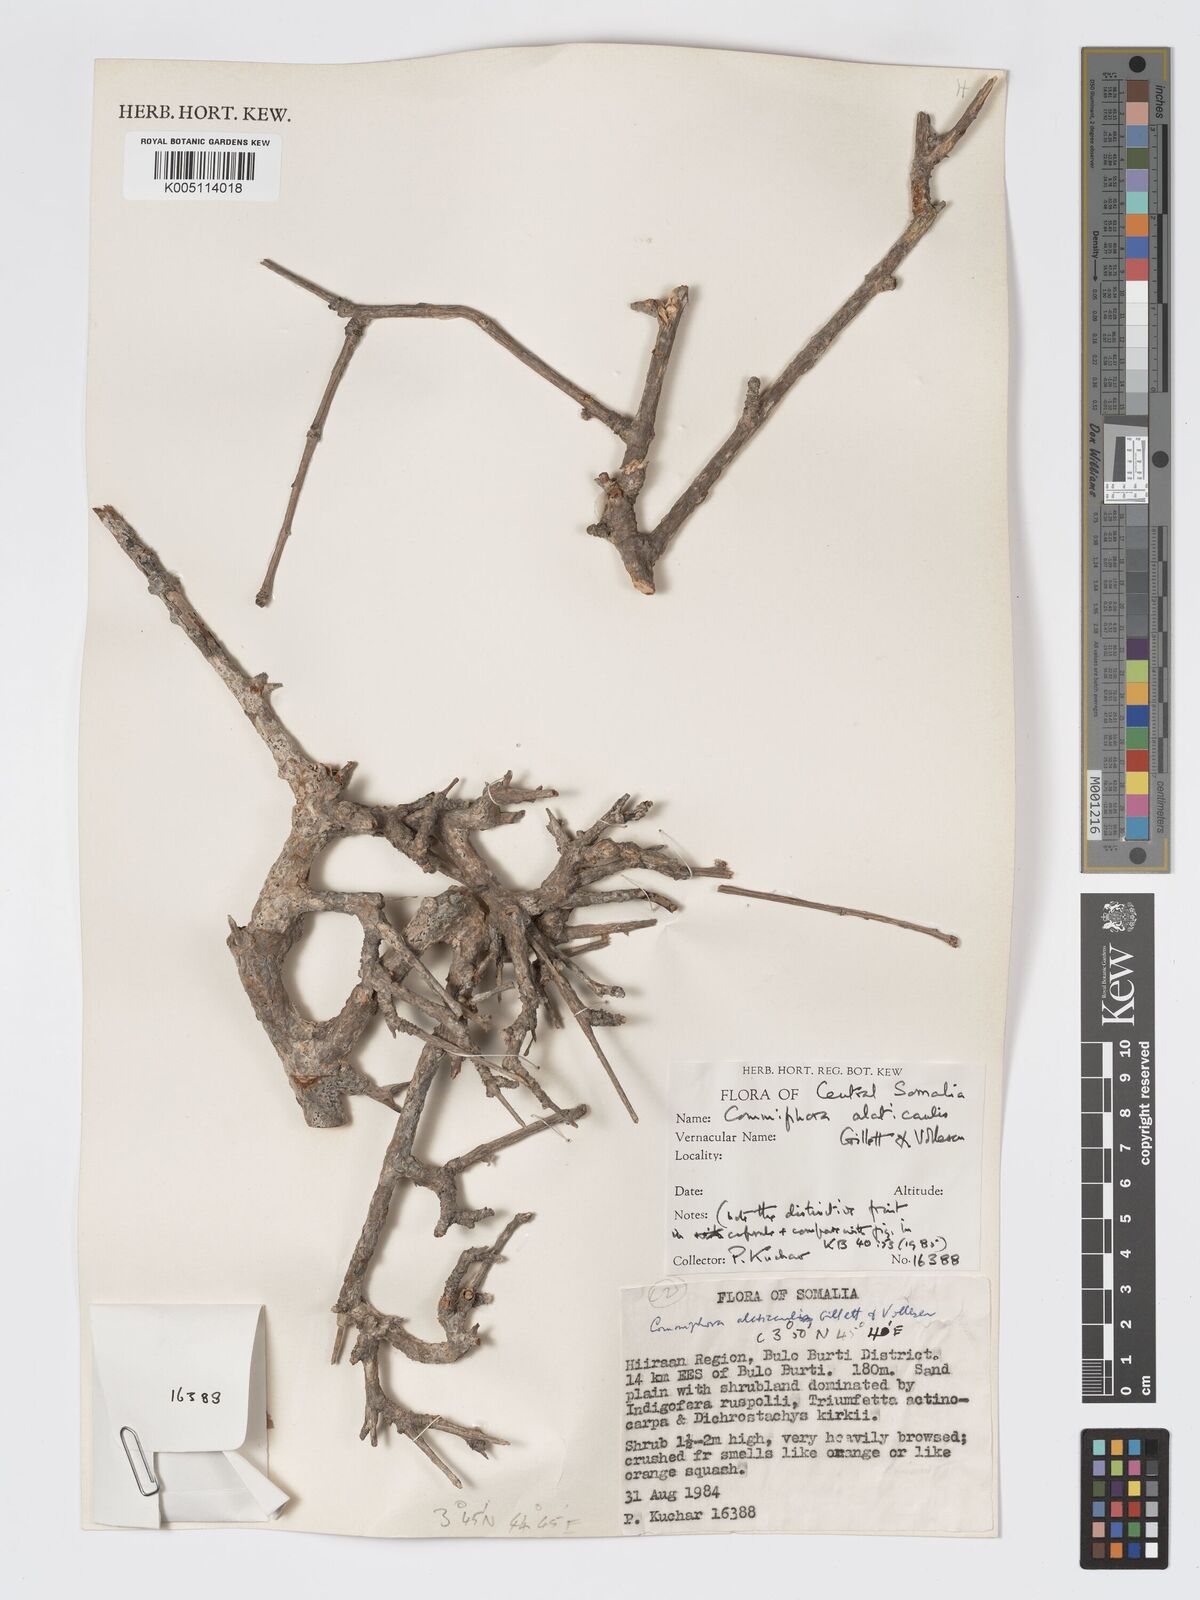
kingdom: Plantae
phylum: Tracheophyta
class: Magnoliopsida
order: Sapindales
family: Burseraceae
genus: Commiphora
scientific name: Commiphora
